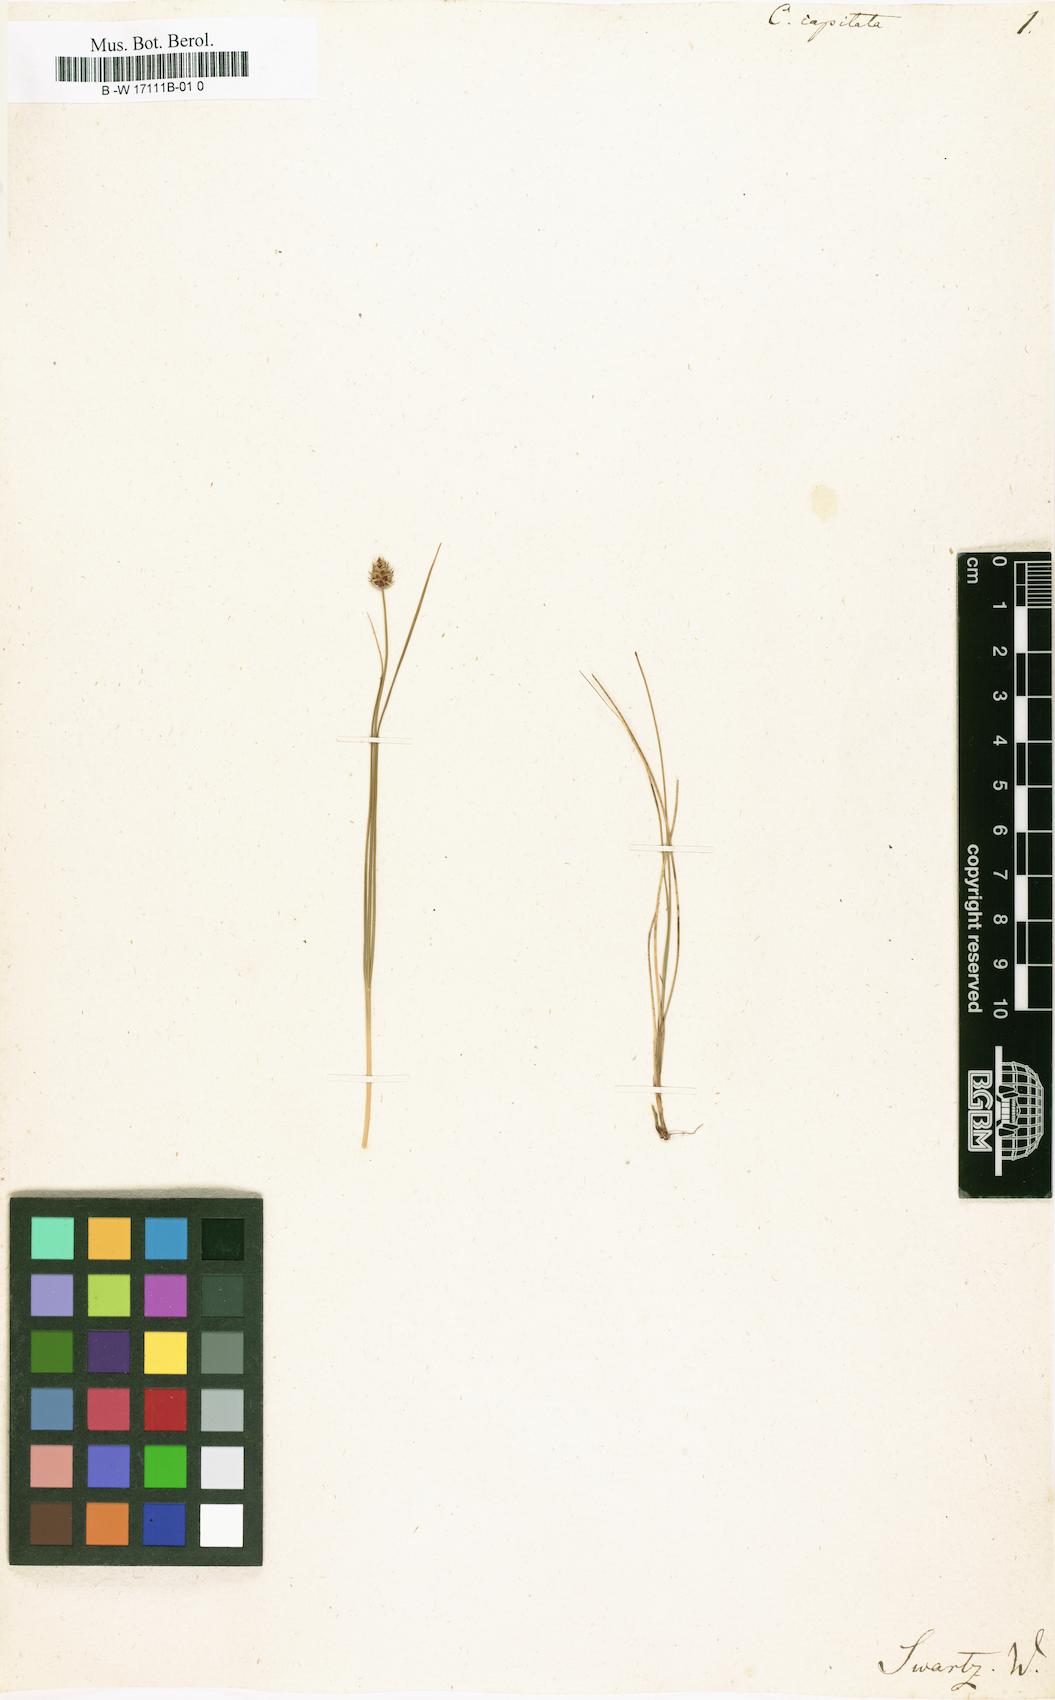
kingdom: Plantae
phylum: Tracheophyta
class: Liliopsida
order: Poales
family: Cyperaceae
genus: Carex
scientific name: Carex capitata
